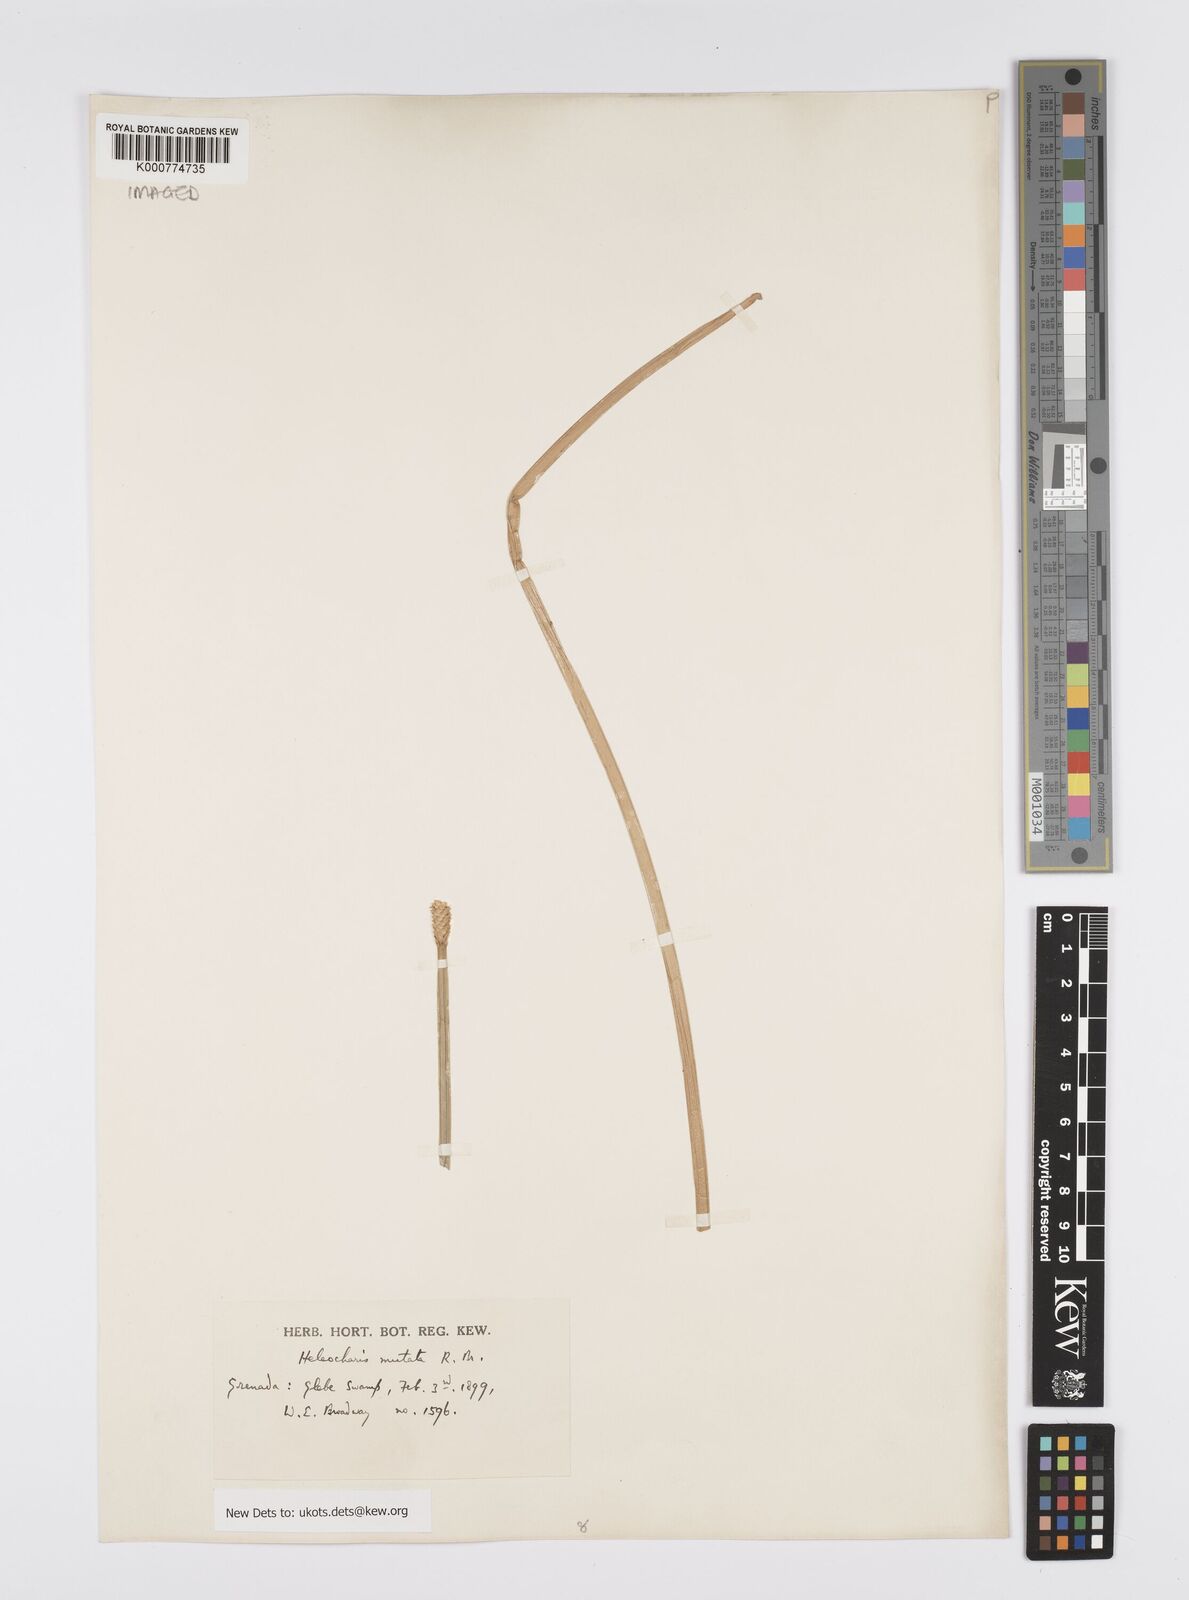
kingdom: Plantae
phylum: Tracheophyta
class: Liliopsida
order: Poales
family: Cyperaceae
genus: Eleocharis
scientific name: Eleocharis mutata
